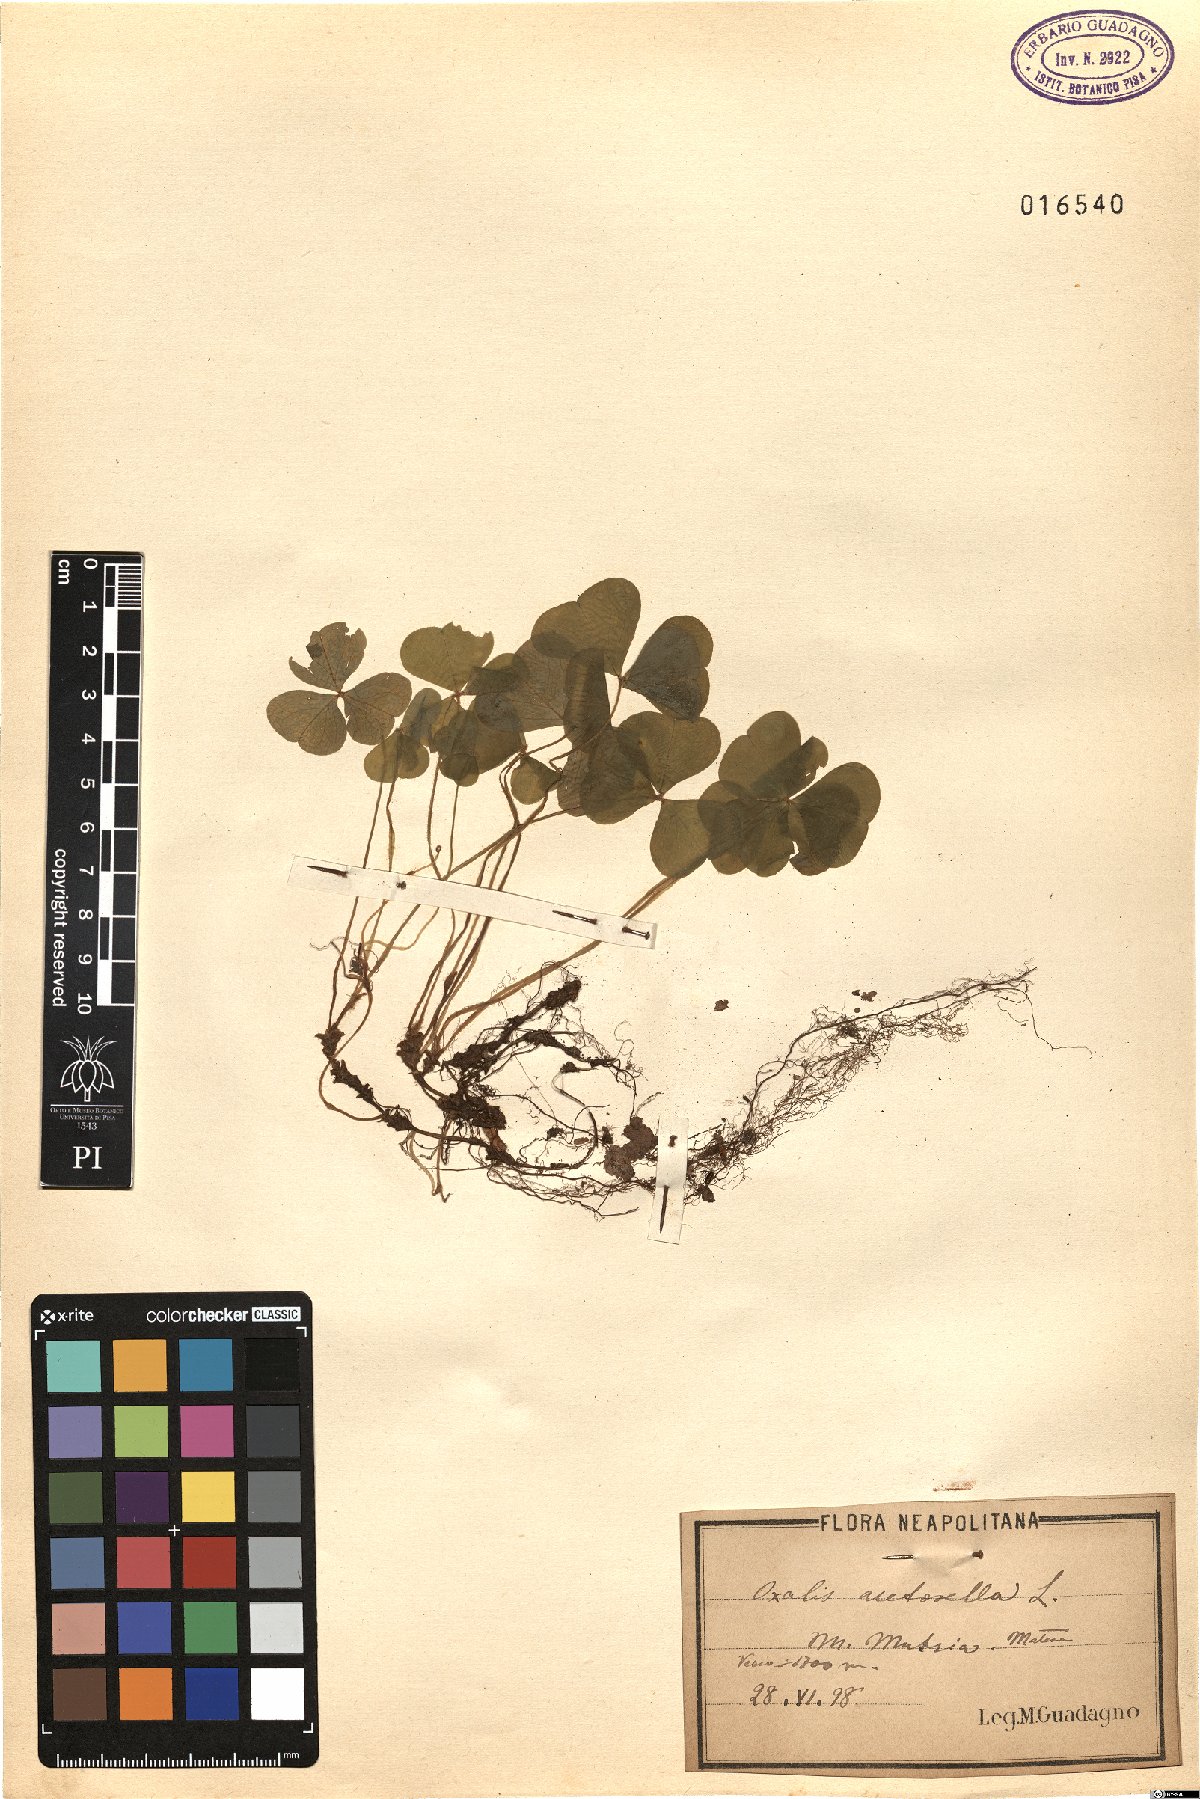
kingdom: Plantae
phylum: Tracheophyta
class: Magnoliopsida
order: Oxalidales
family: Oxalidaceae
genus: Oxalis
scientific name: Oxalis acetosella
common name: Wood-sorrel
